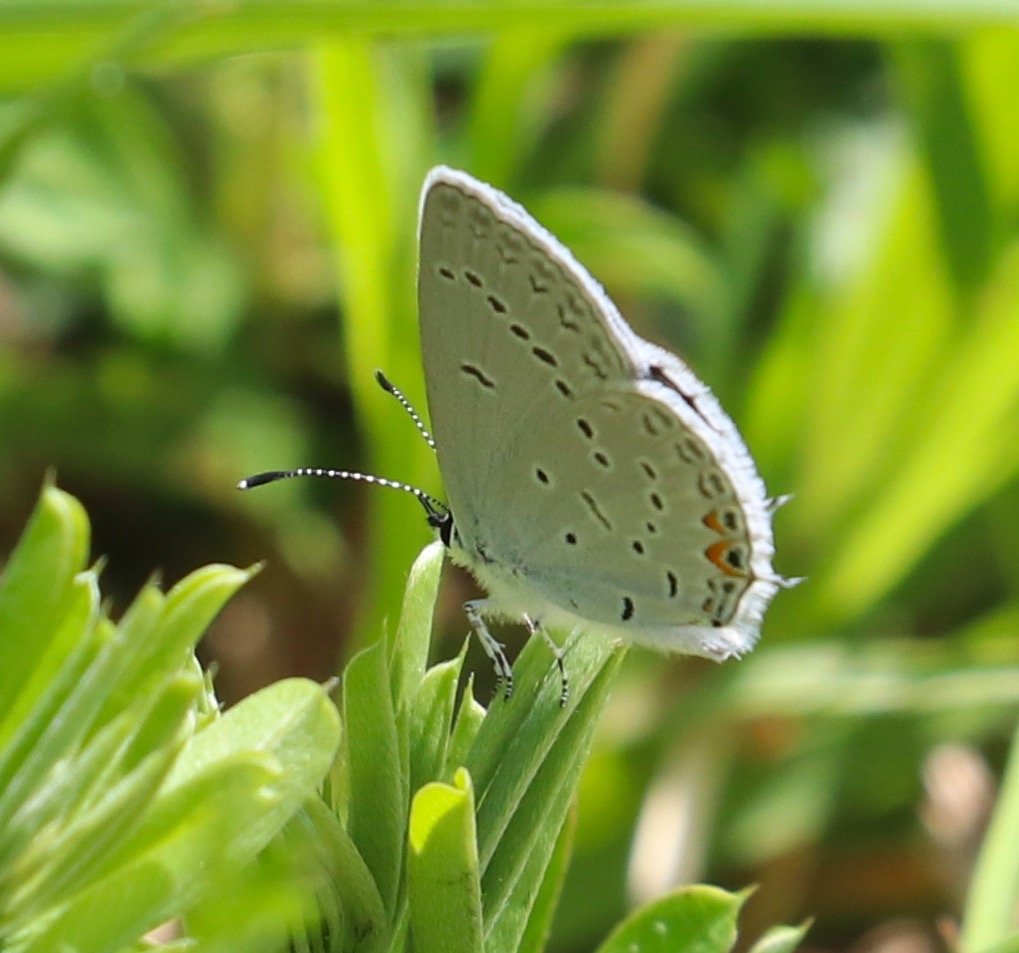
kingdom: Animalia
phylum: Arthropoda
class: Insecta
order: Lepidoptera
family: Lycaenidae
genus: Elkalyce
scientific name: Elkalyce comyntas
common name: Eastern Tailed-Blue
